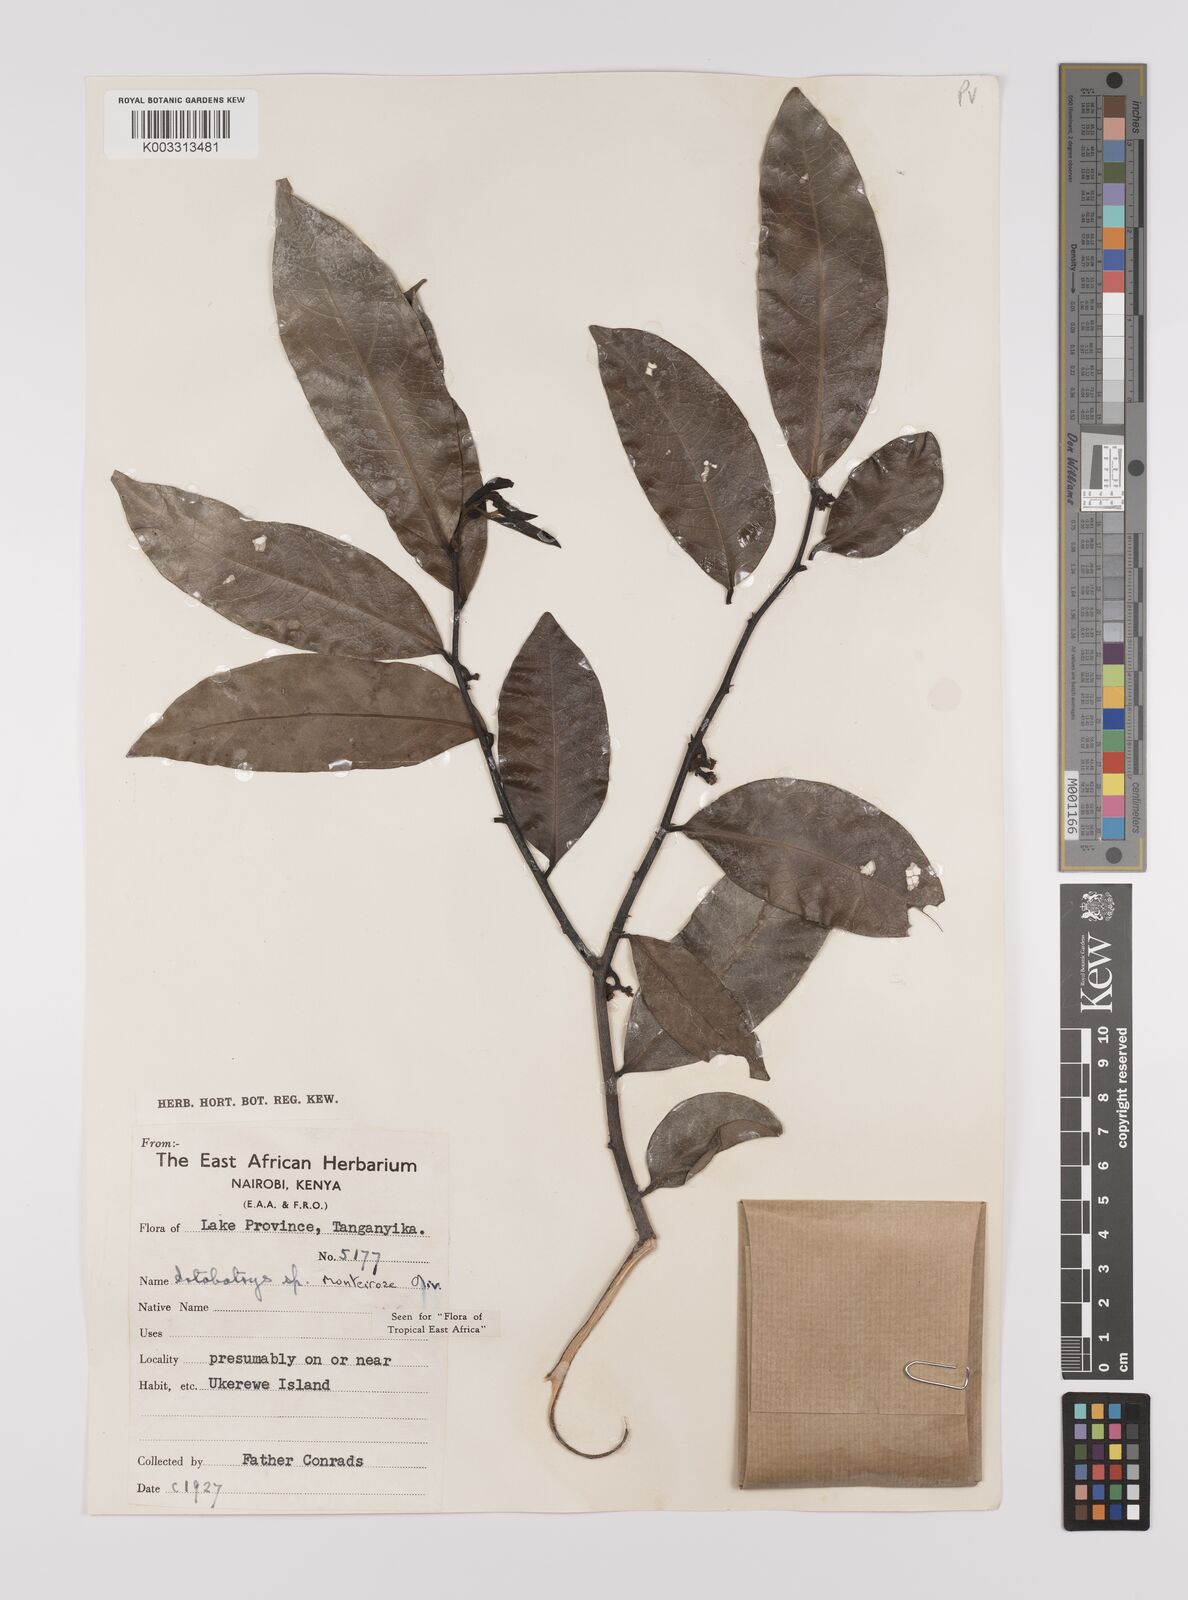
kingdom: Plantae
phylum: Tracheophyta
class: Magnoliopsida
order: Magnoliales
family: Annonaceae
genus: Artabotrys
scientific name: Artabotrys monteiroae
